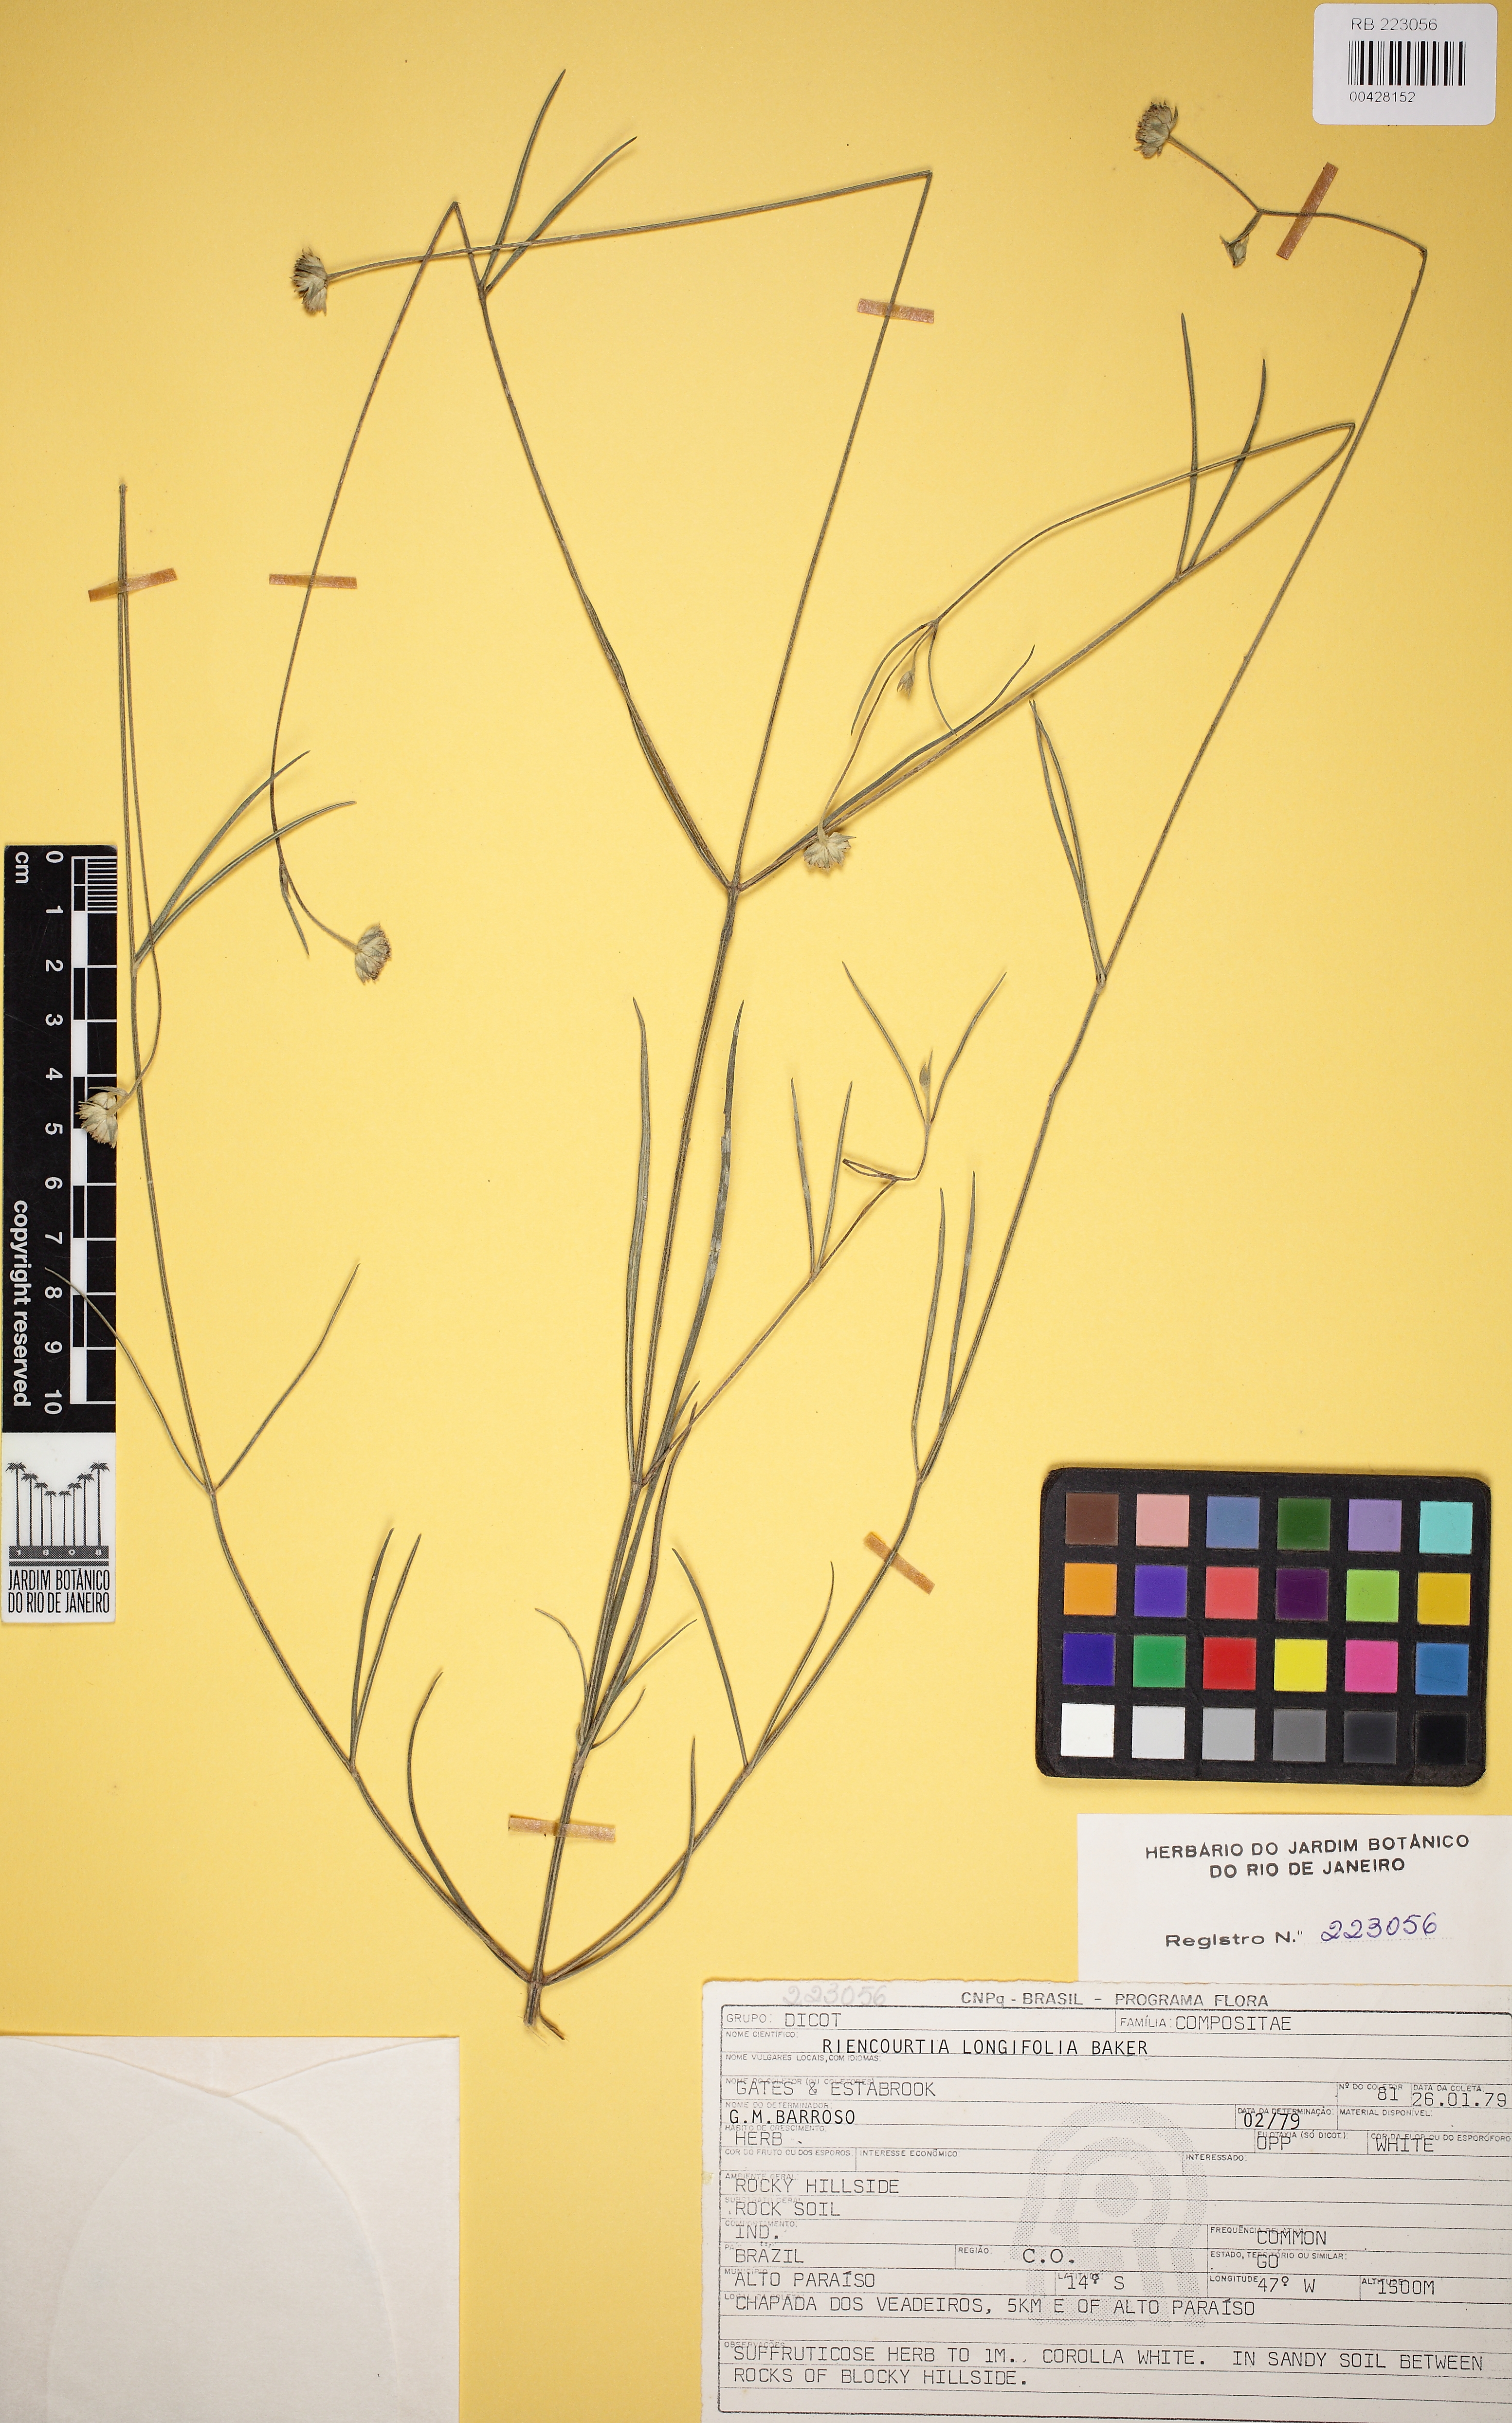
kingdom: Plantae
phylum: Tracheophyta
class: Magnoliopsida
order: Asterales
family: Asteraceae
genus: Riencourtia
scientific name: Riencourtia longifolia
